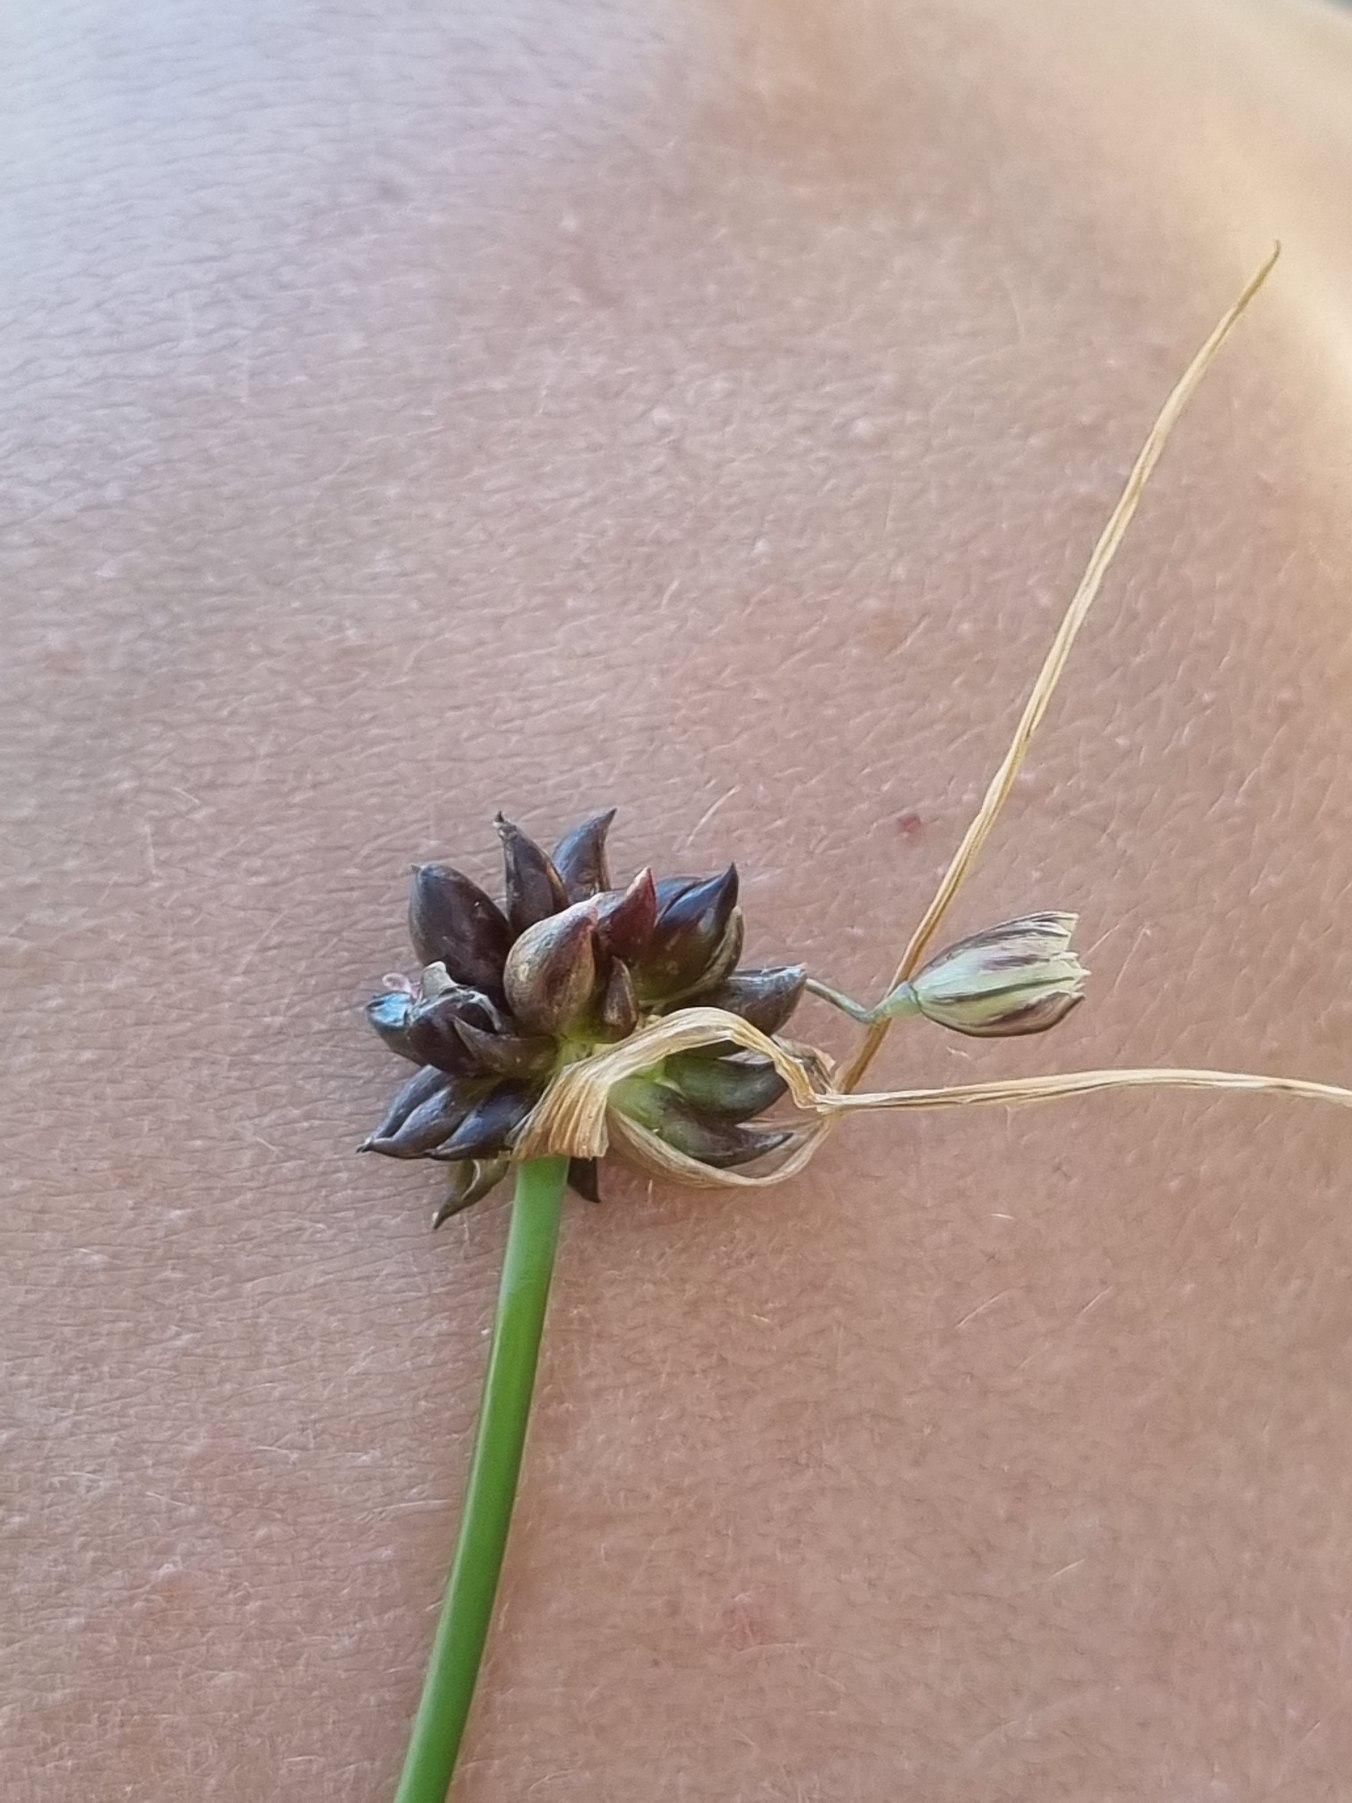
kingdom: Plantae
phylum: Tracheophyta
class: Liliopsida
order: Asparagales
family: Amaryllidaceae
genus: Allium
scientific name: Allium oleraceum
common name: Vild løg
